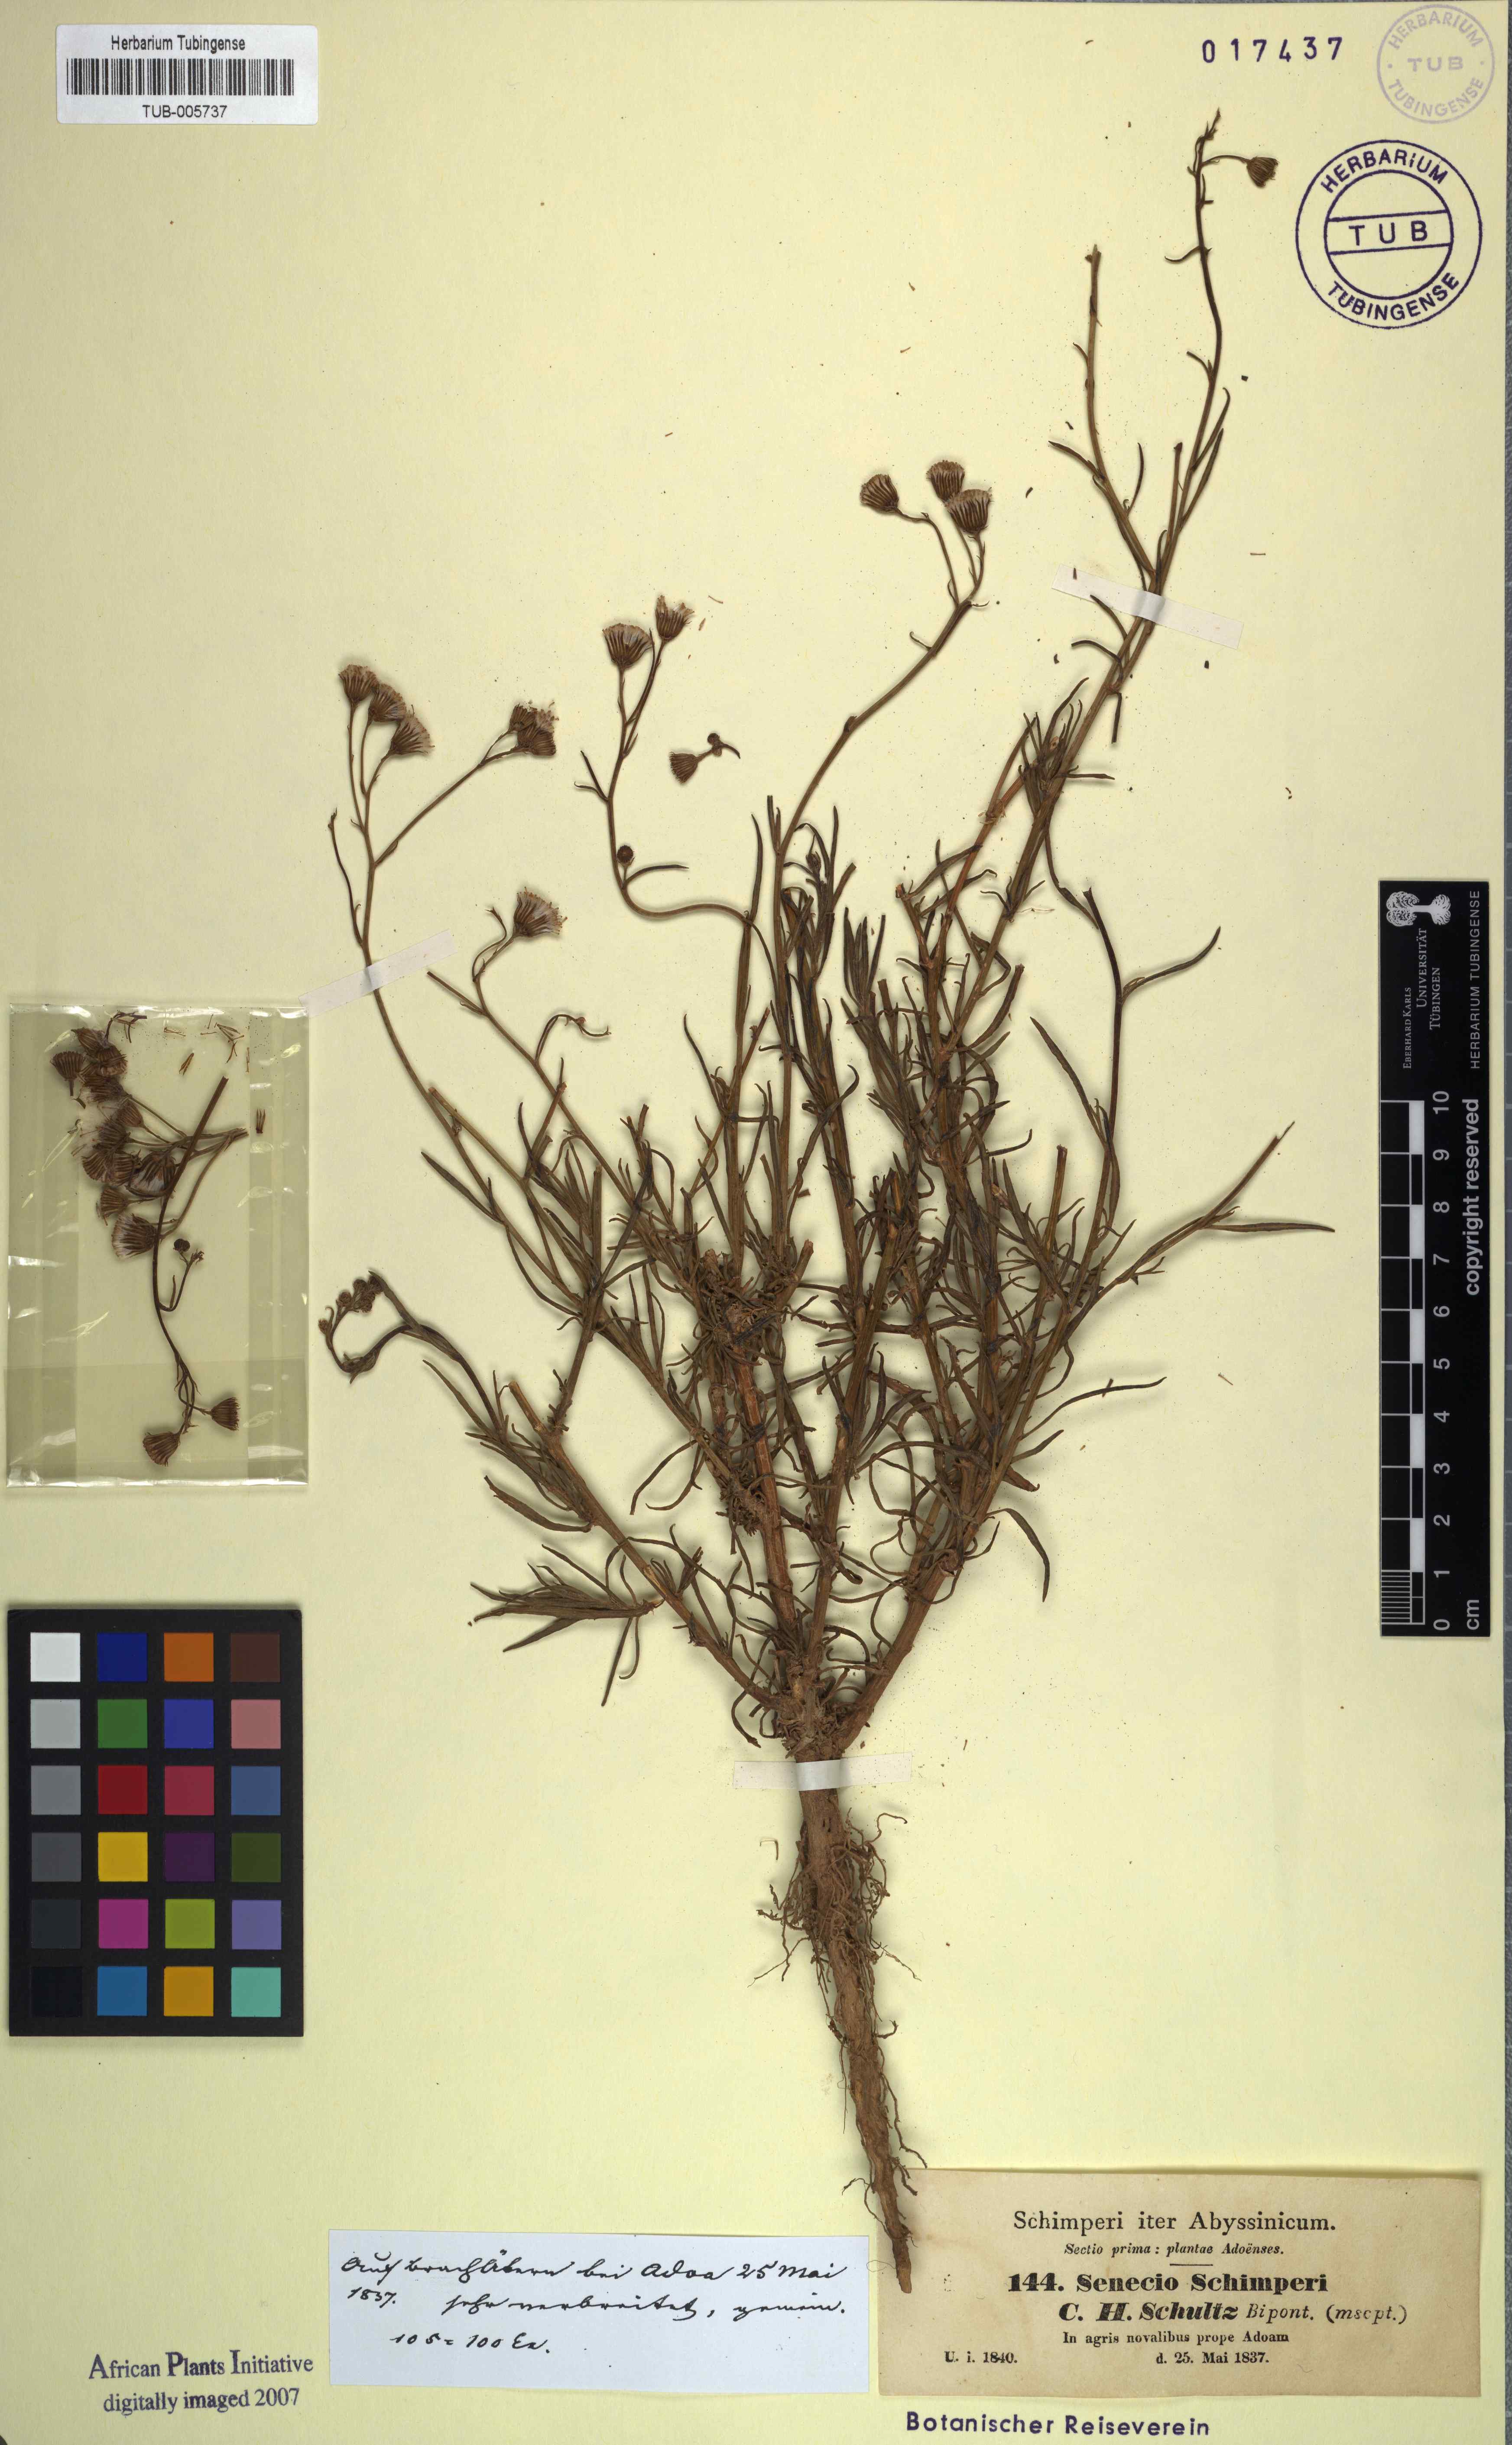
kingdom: Plantae
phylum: Tracheophyta
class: Magnoliopsida
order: Asterales
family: Asteraceae
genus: Senecio
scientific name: Senecio schimperi
